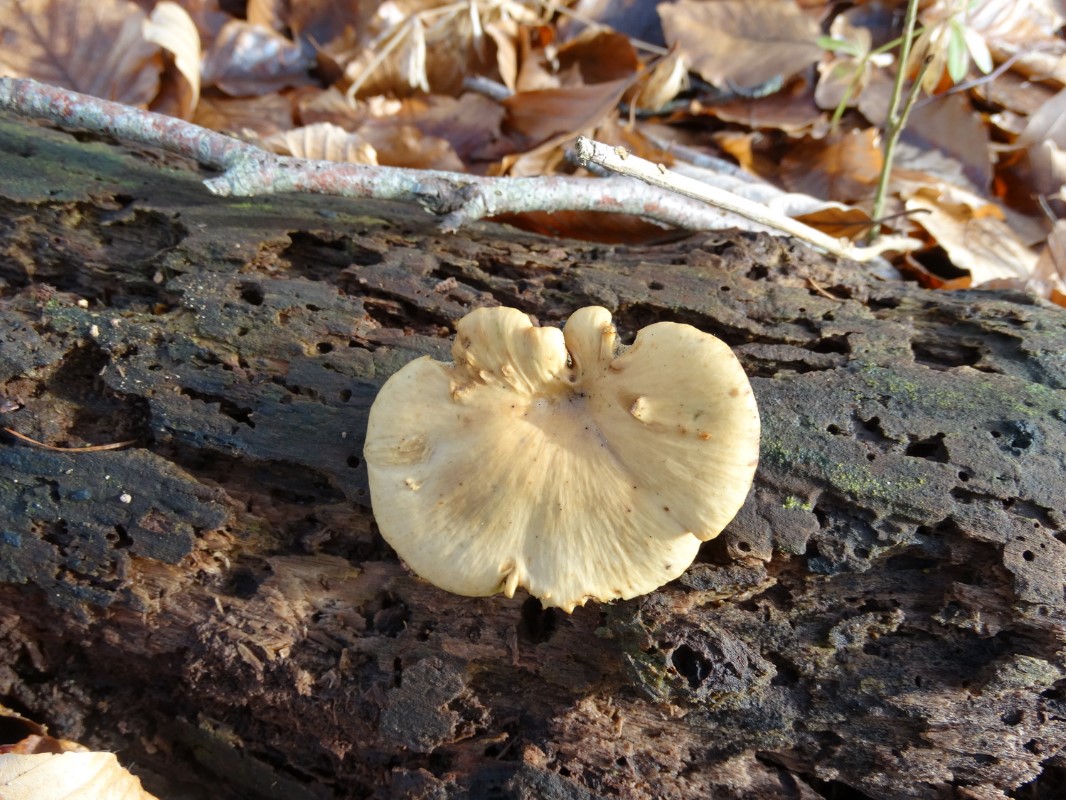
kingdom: Fungi
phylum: Basidiomycota
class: Agaricomycetes
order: Polyporales
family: Polyporaceae
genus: Cerioporus
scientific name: Cerioporus varius
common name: foranderlig stilkporesvamp
